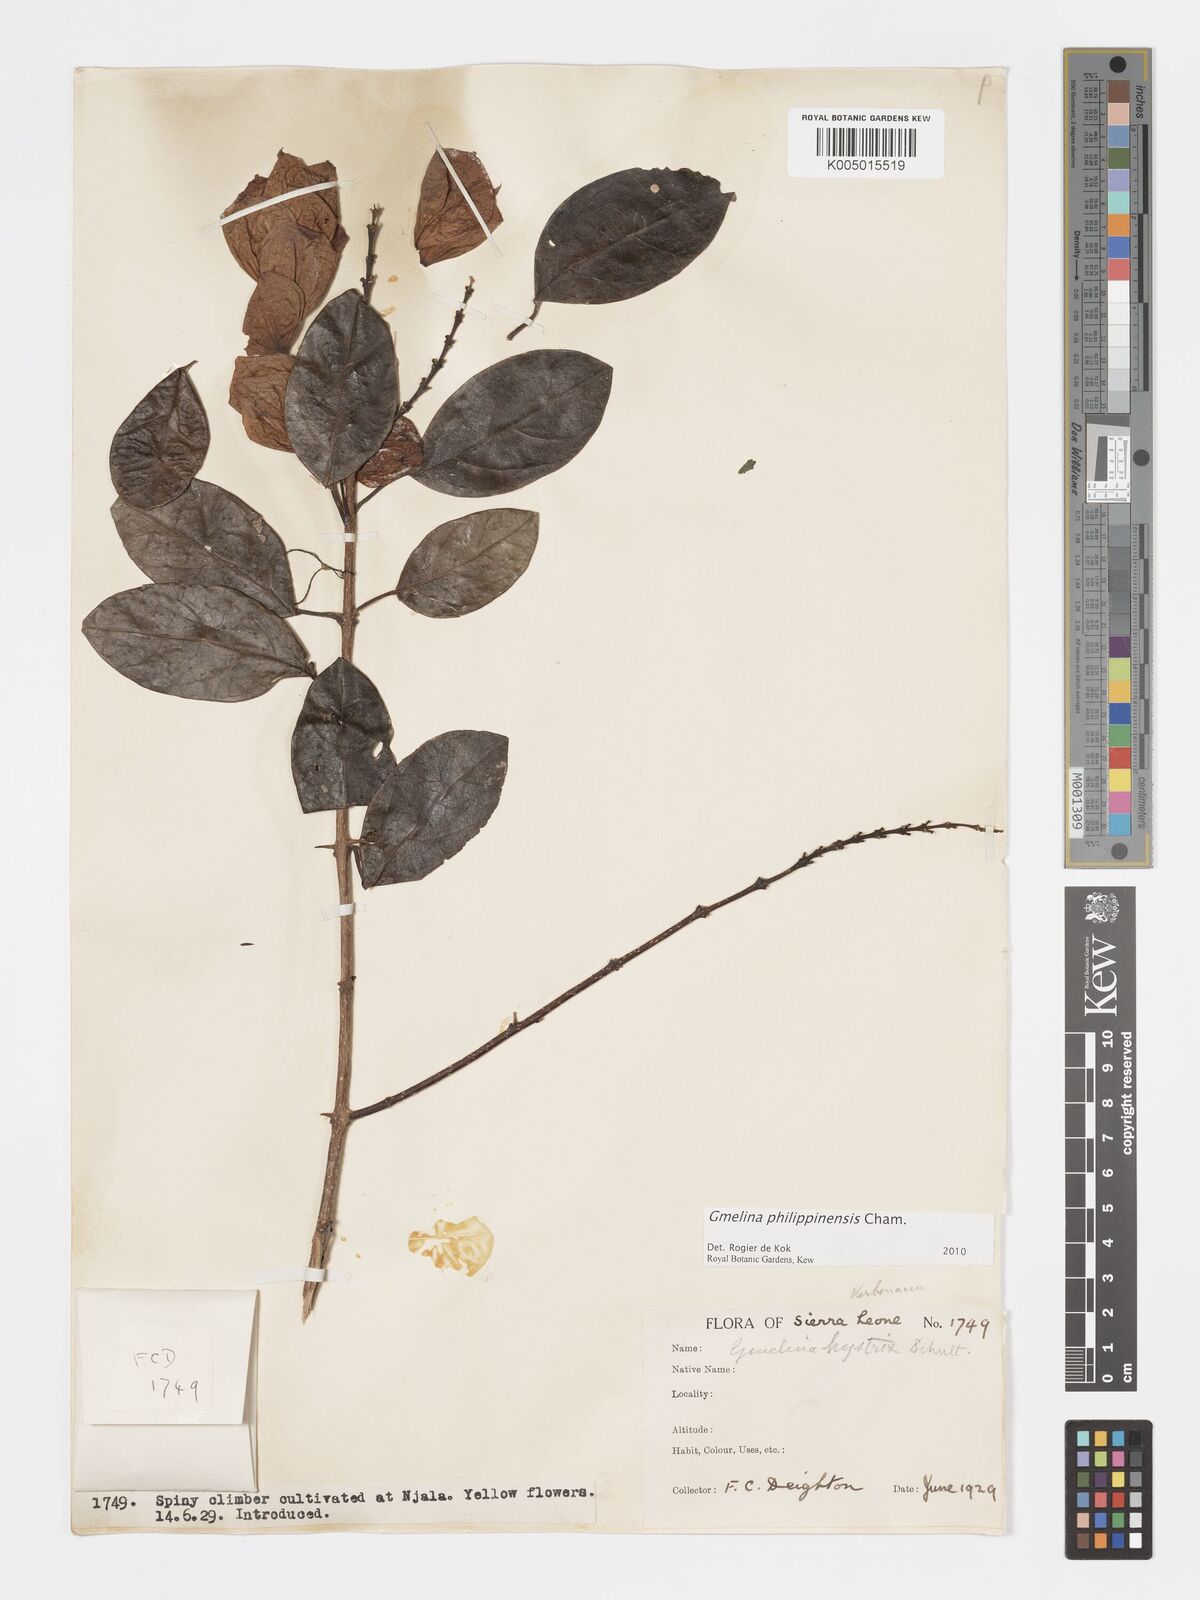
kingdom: Plantae
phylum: Tracheophyta
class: Magnoliopsida
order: Lamiales
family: Lamiaceae
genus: Gmelina
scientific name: Gmelina philippensis
